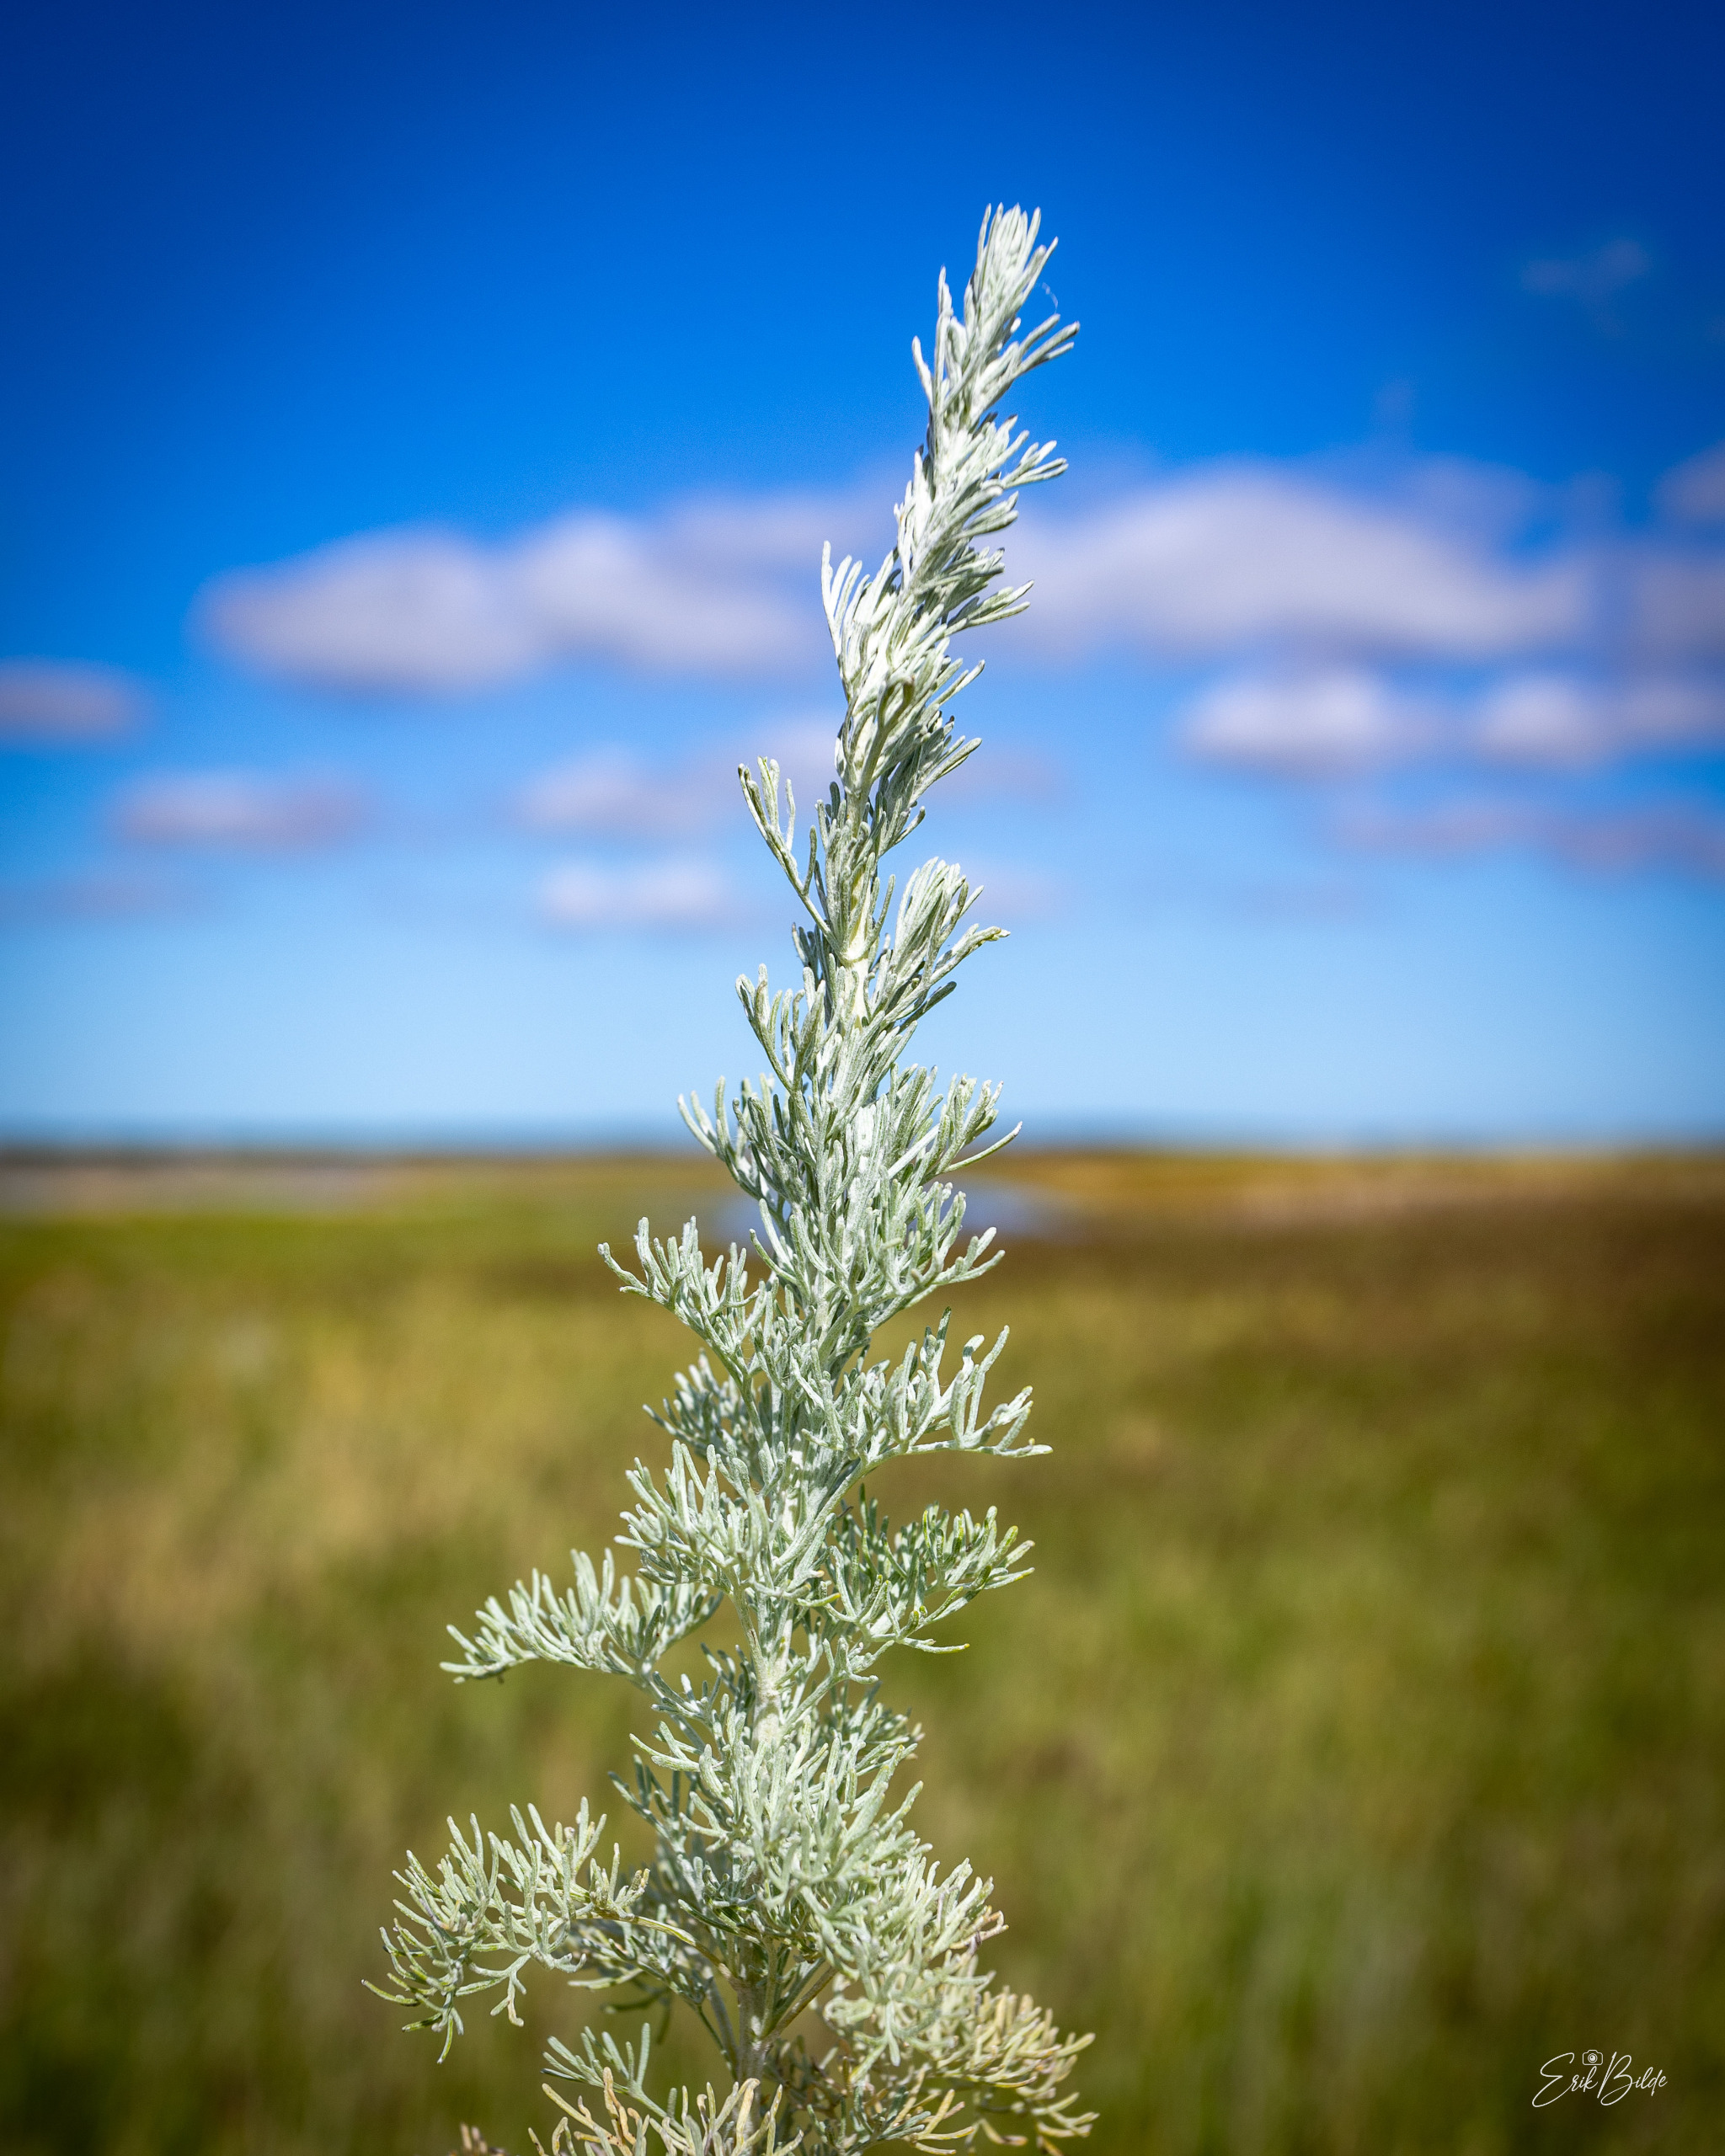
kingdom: Plantae
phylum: Tracheophyta
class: Magnoliopsida
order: Asterales
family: Asteraceae
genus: Artemisia
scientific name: Artemisia maritima
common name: Strandmalurt
